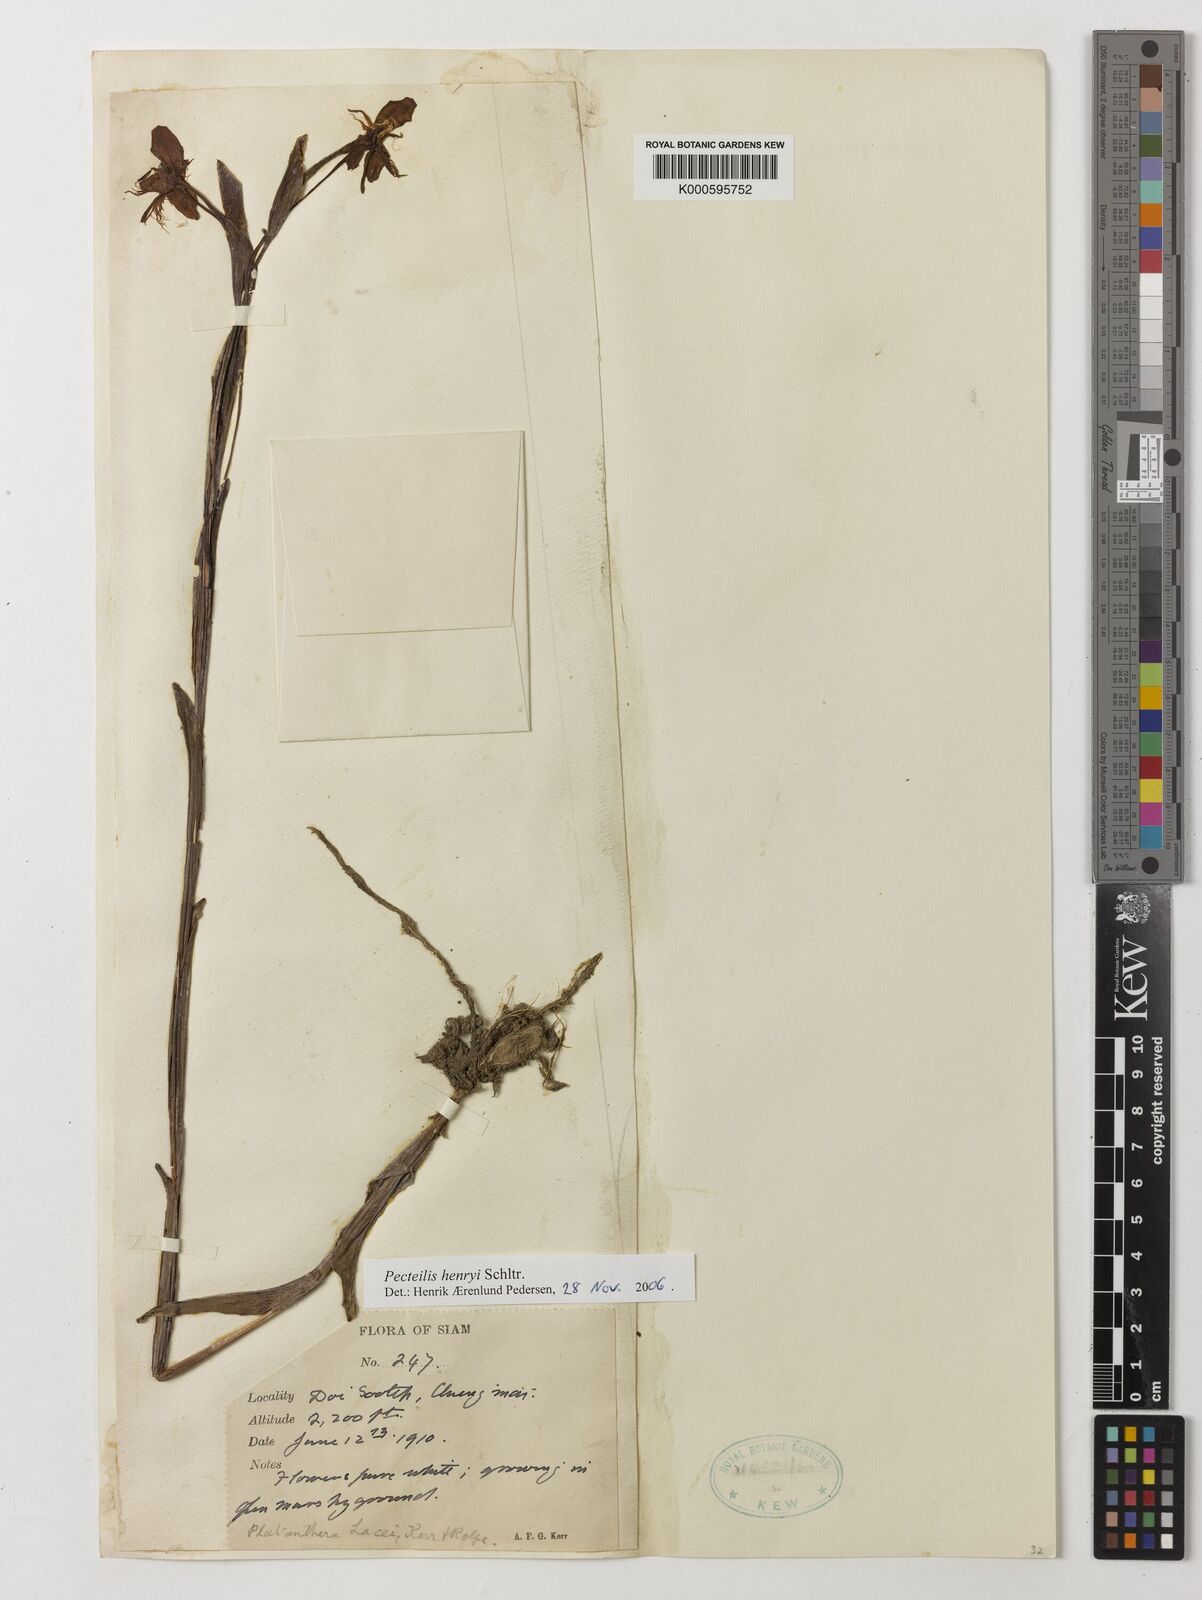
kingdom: Plantae
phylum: Tracheophyta
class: Liliopsida
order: Asparagales
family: Orchidaceae
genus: Pecteilis
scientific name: Pecteilis henryi
